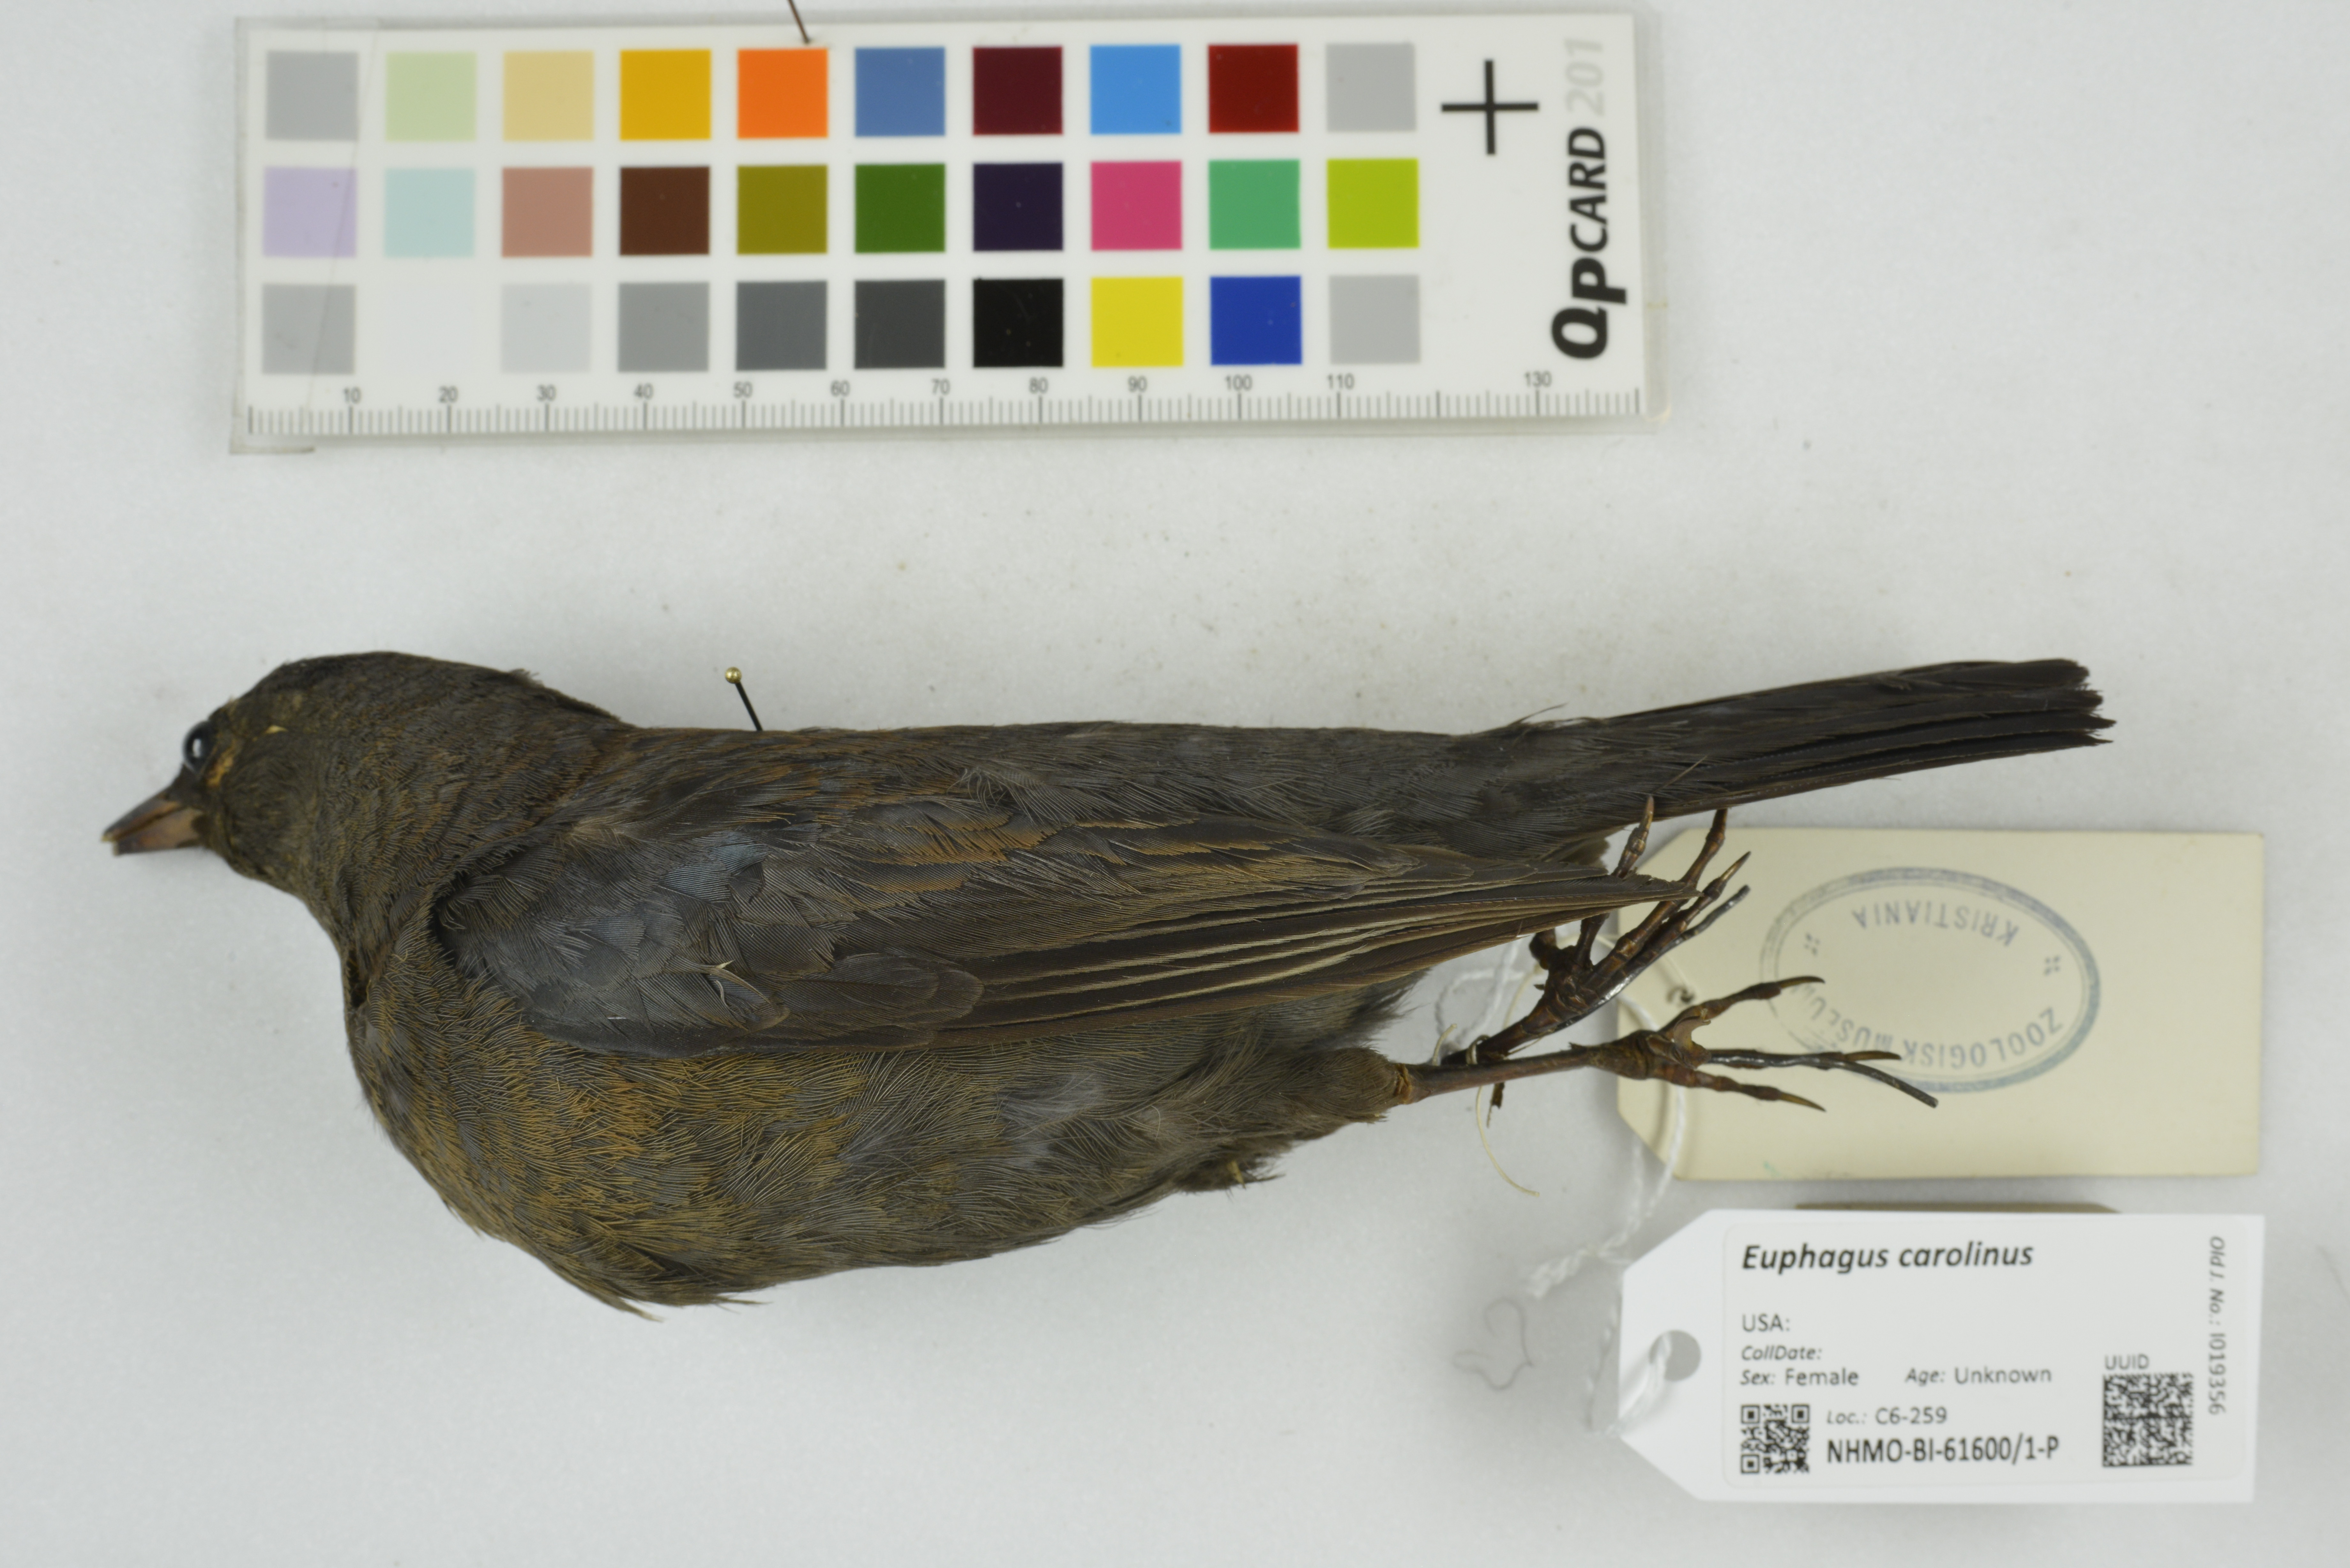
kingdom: Animalia
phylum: Chordata
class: Aves
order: Passeriformes
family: Icteridae
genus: Euphagus
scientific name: Euphagus carolinus
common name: Rusty blackbird
